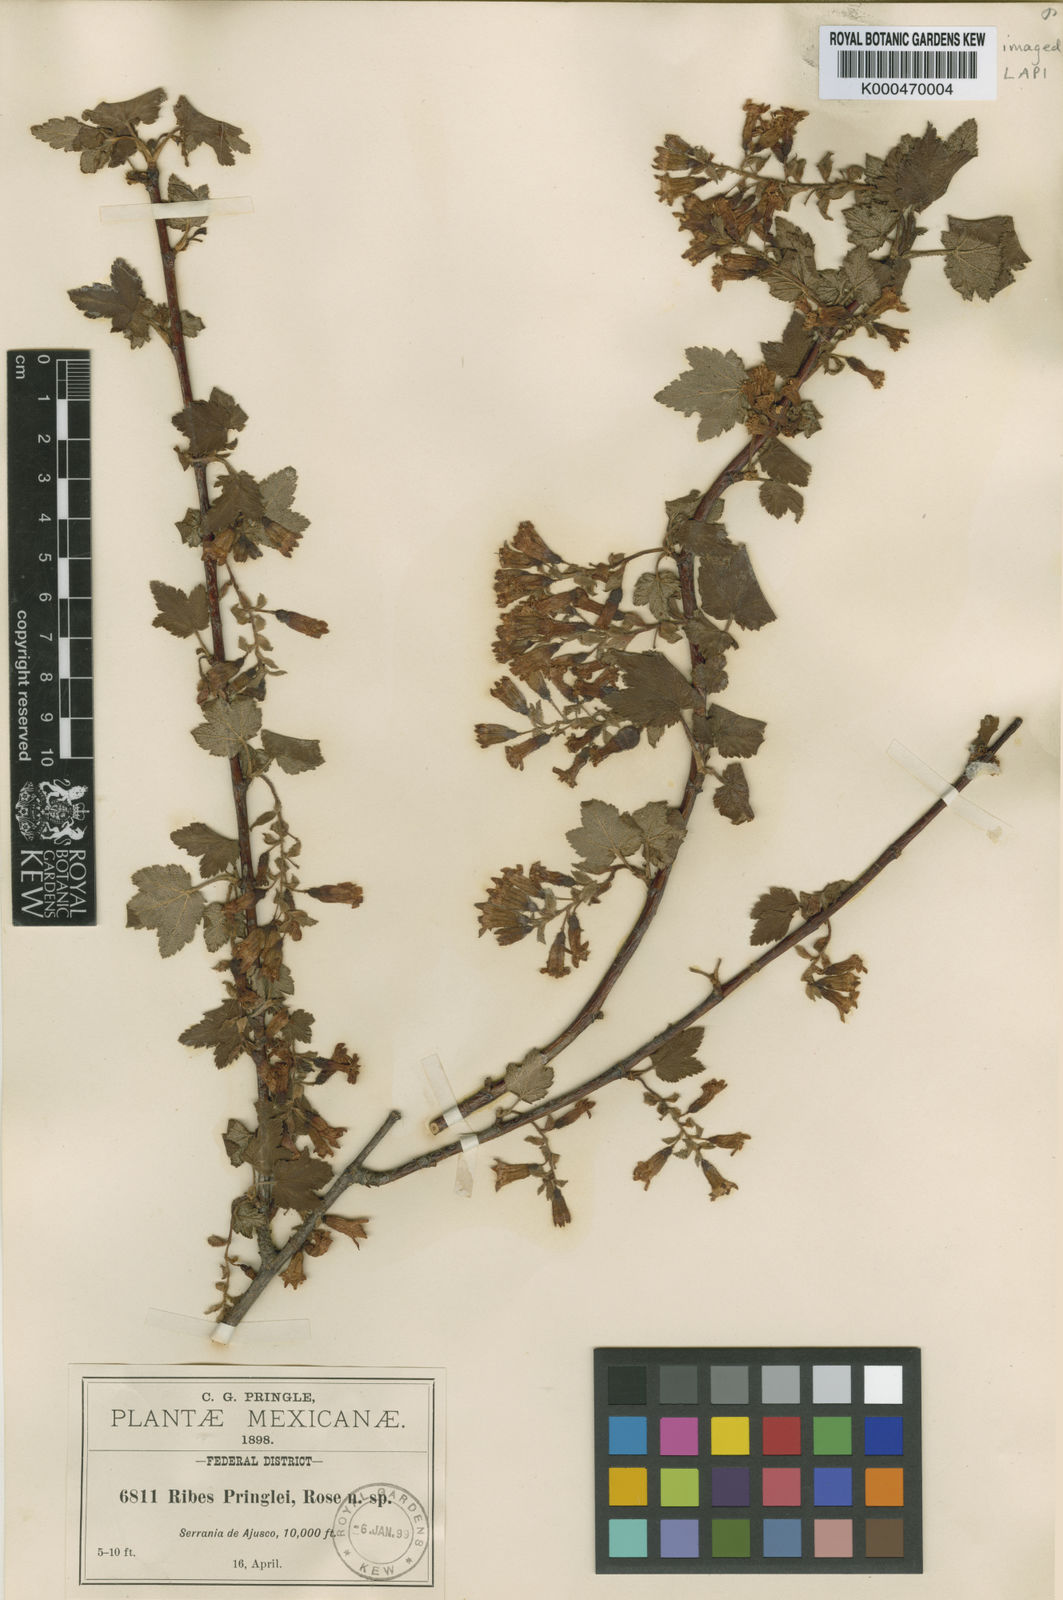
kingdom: Plantae
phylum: Tracheophyta
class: Magnoliopsida
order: Saxifragales
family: Grossulariaceae
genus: Ribes
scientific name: Ribes pringlei
